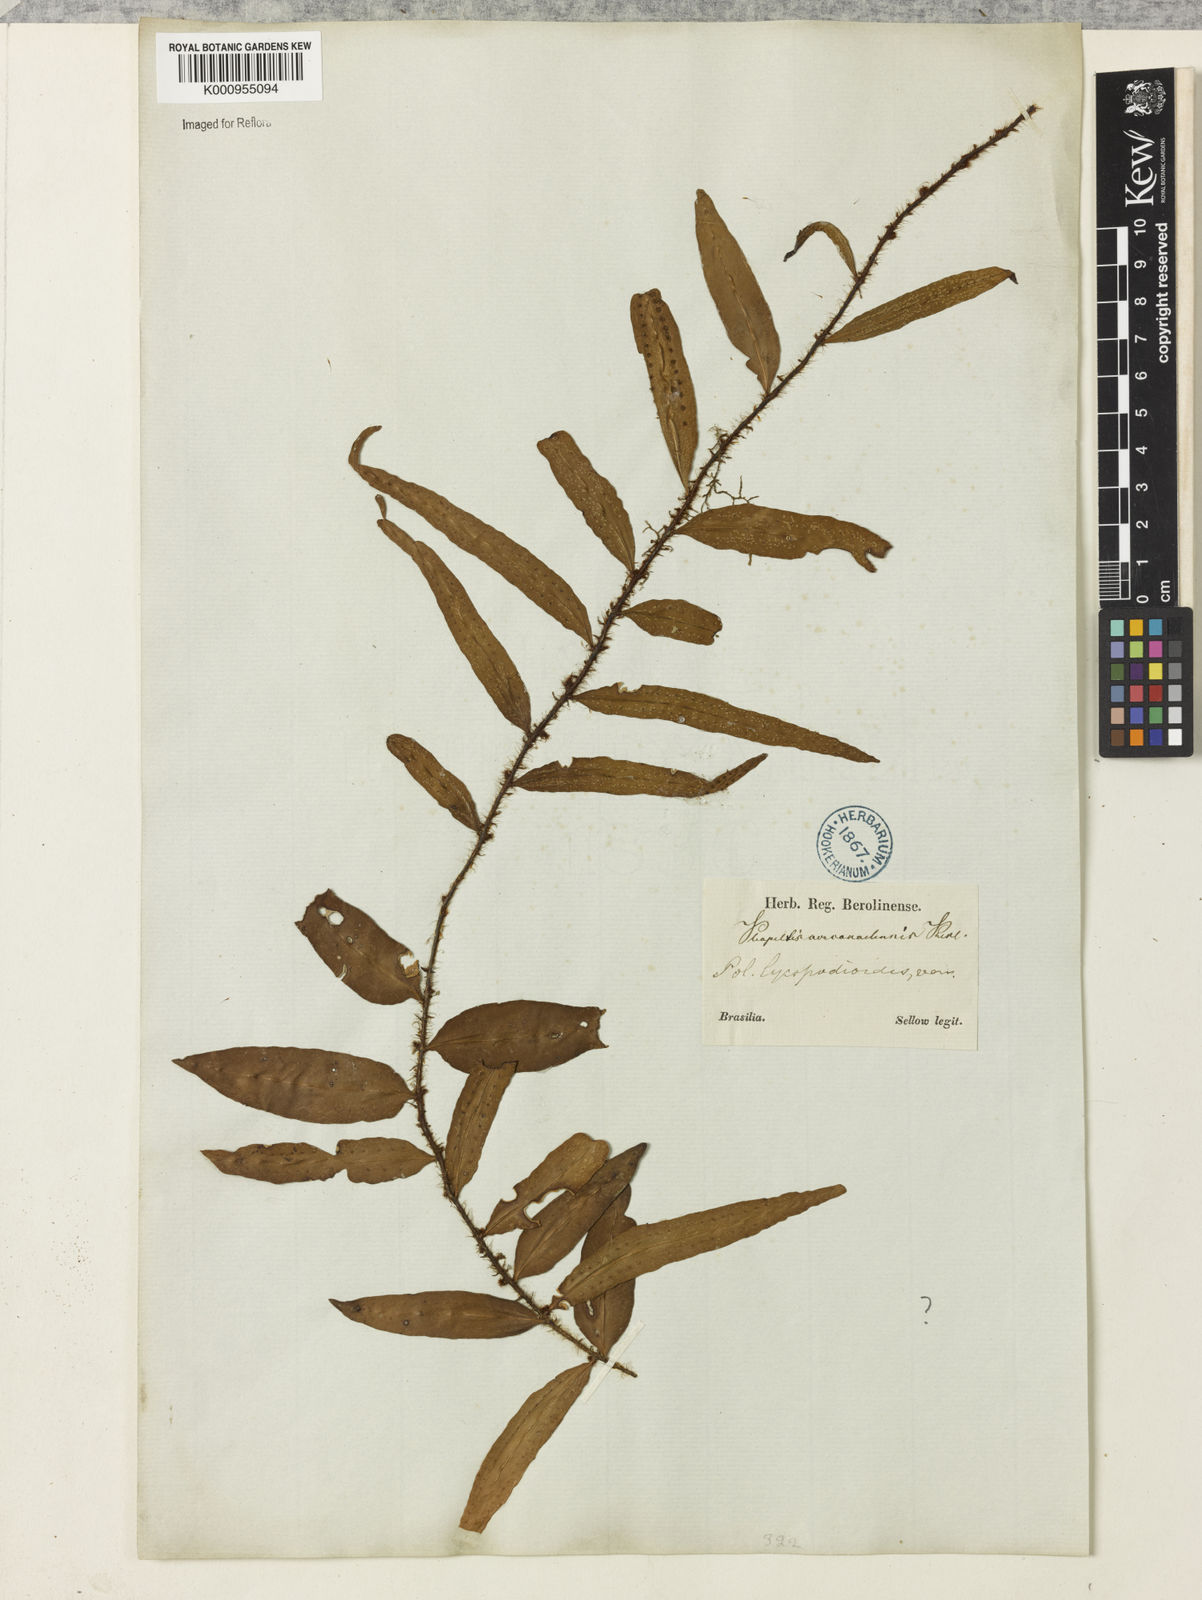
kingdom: Plantae
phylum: Tracheophyta
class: Polypodiopsida
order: Polypodiales
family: Polypodiaceae
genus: Microgramma
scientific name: Microgramma
